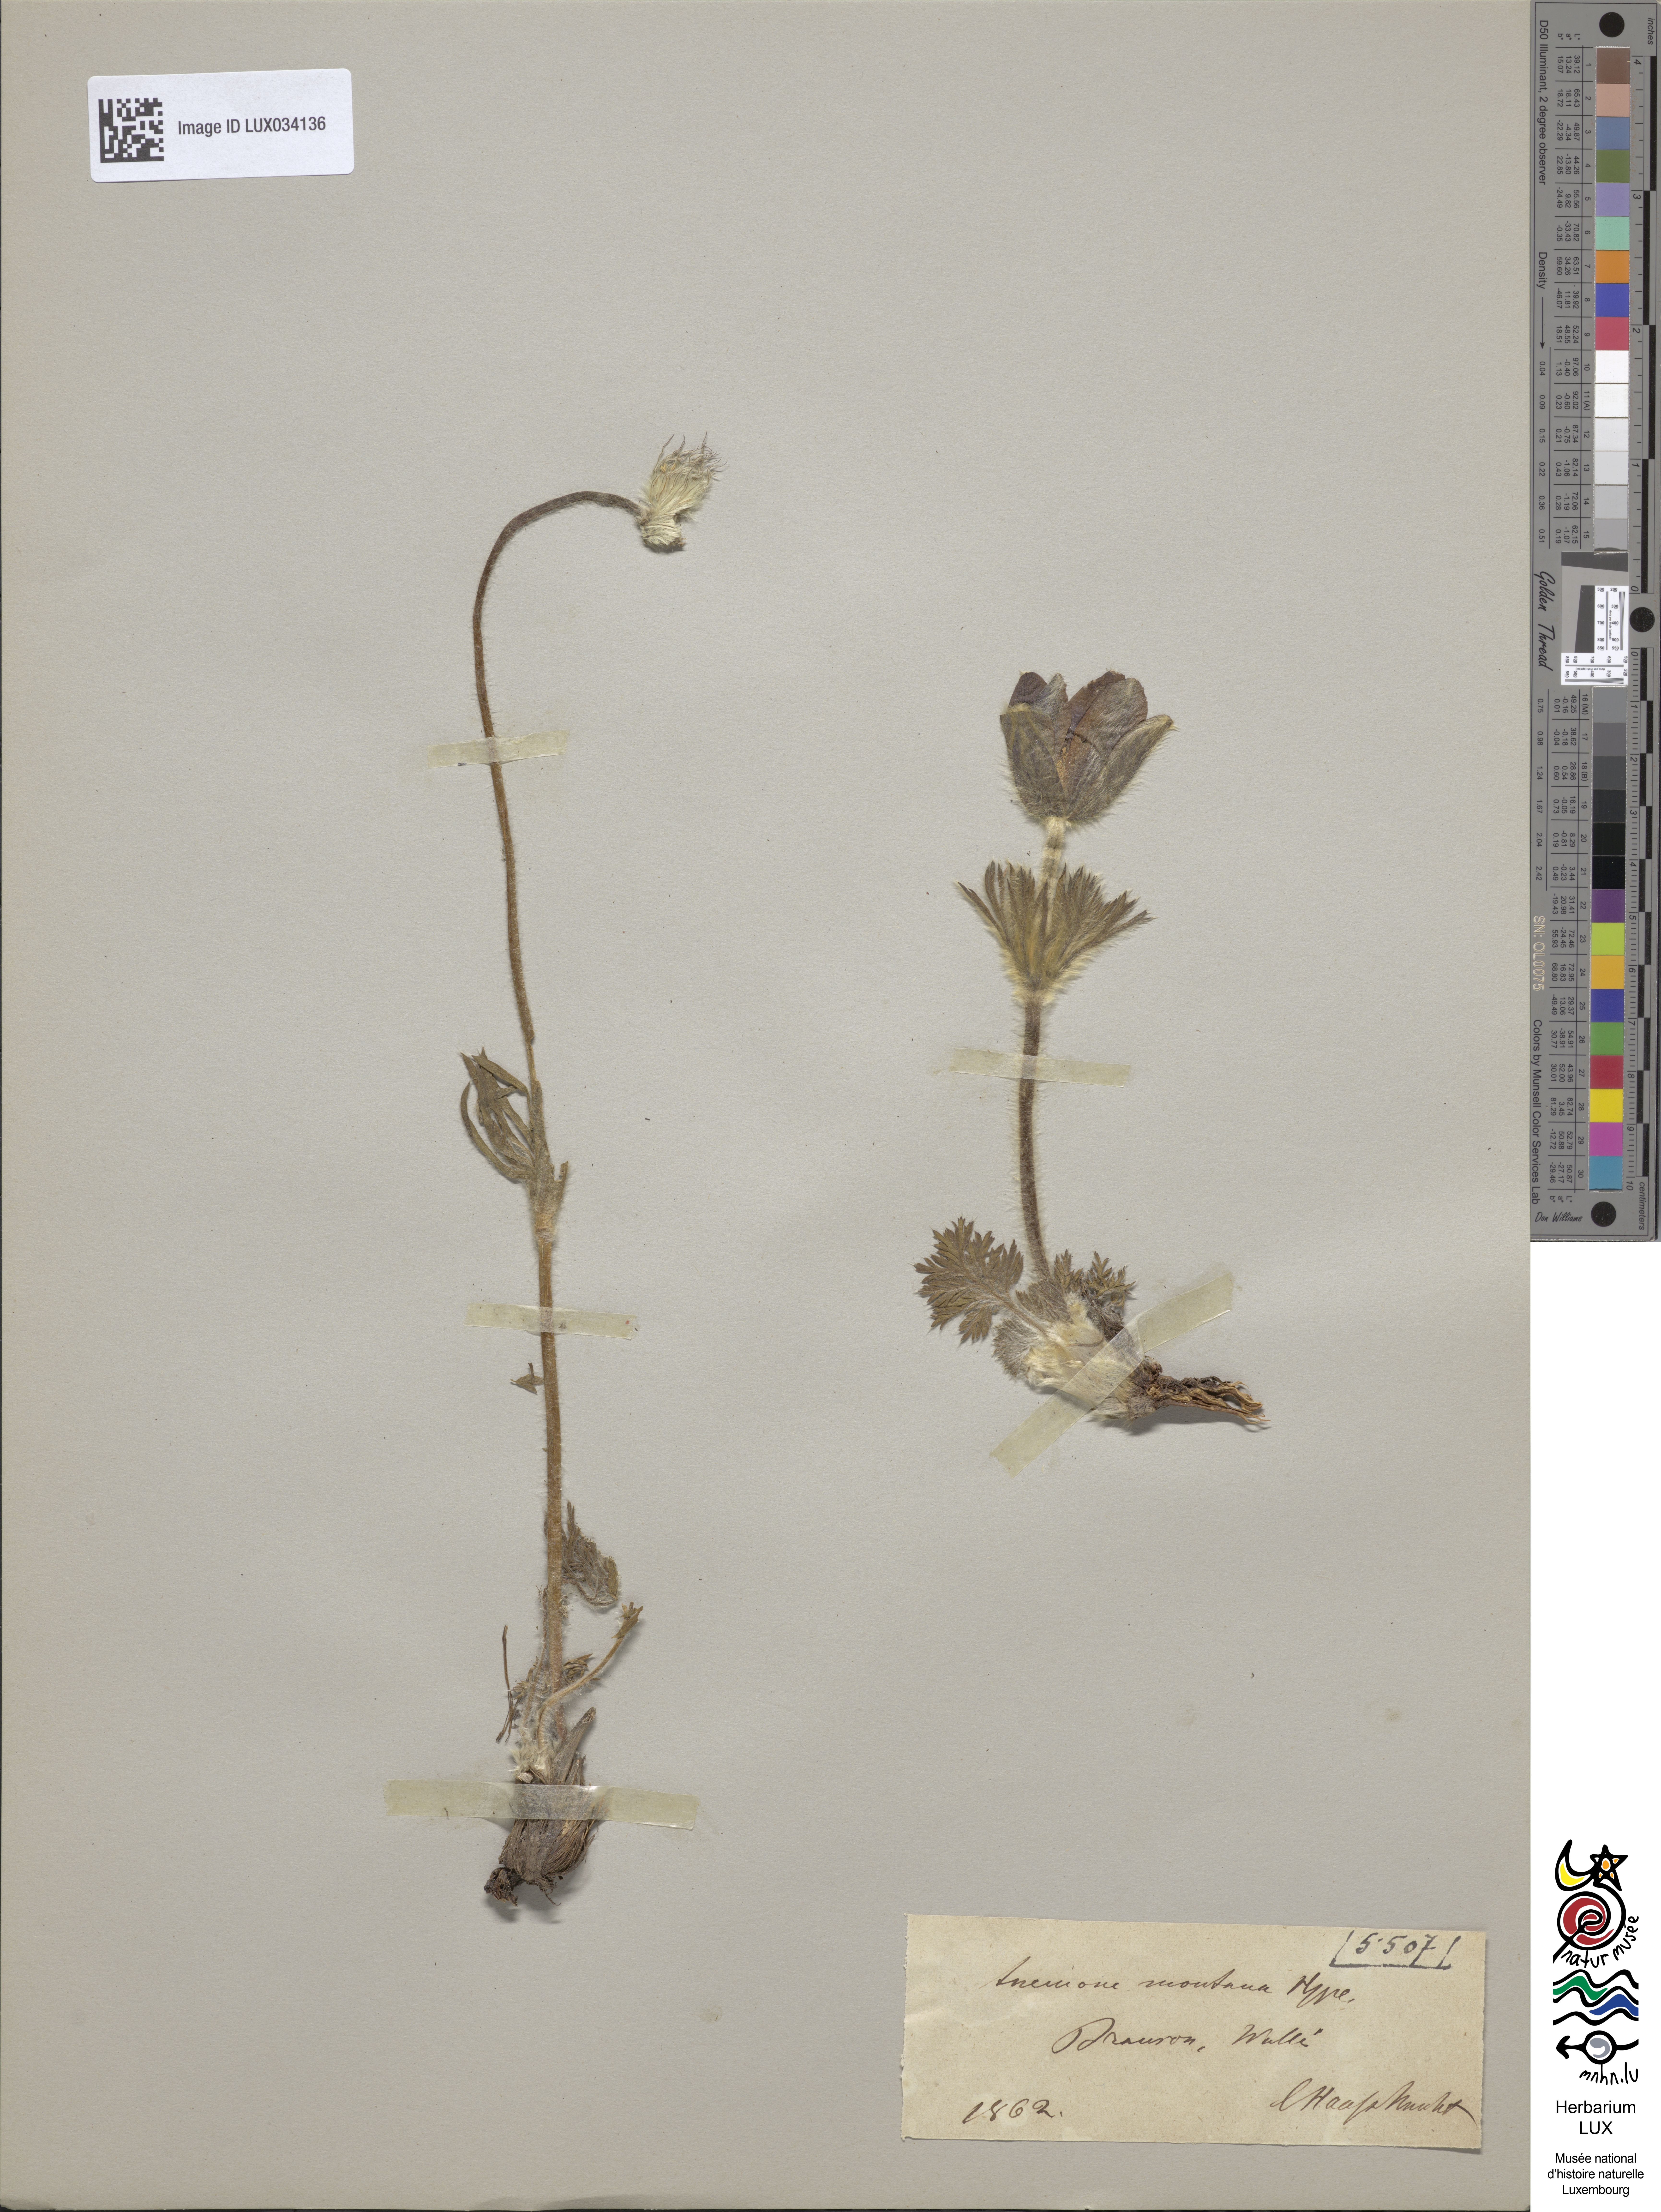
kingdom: Plantae
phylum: Tracheophyta
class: Magnoliopsida
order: Ranunculales
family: Ranunculaceae
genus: Pulsatilla
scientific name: Pulsatilla montana
